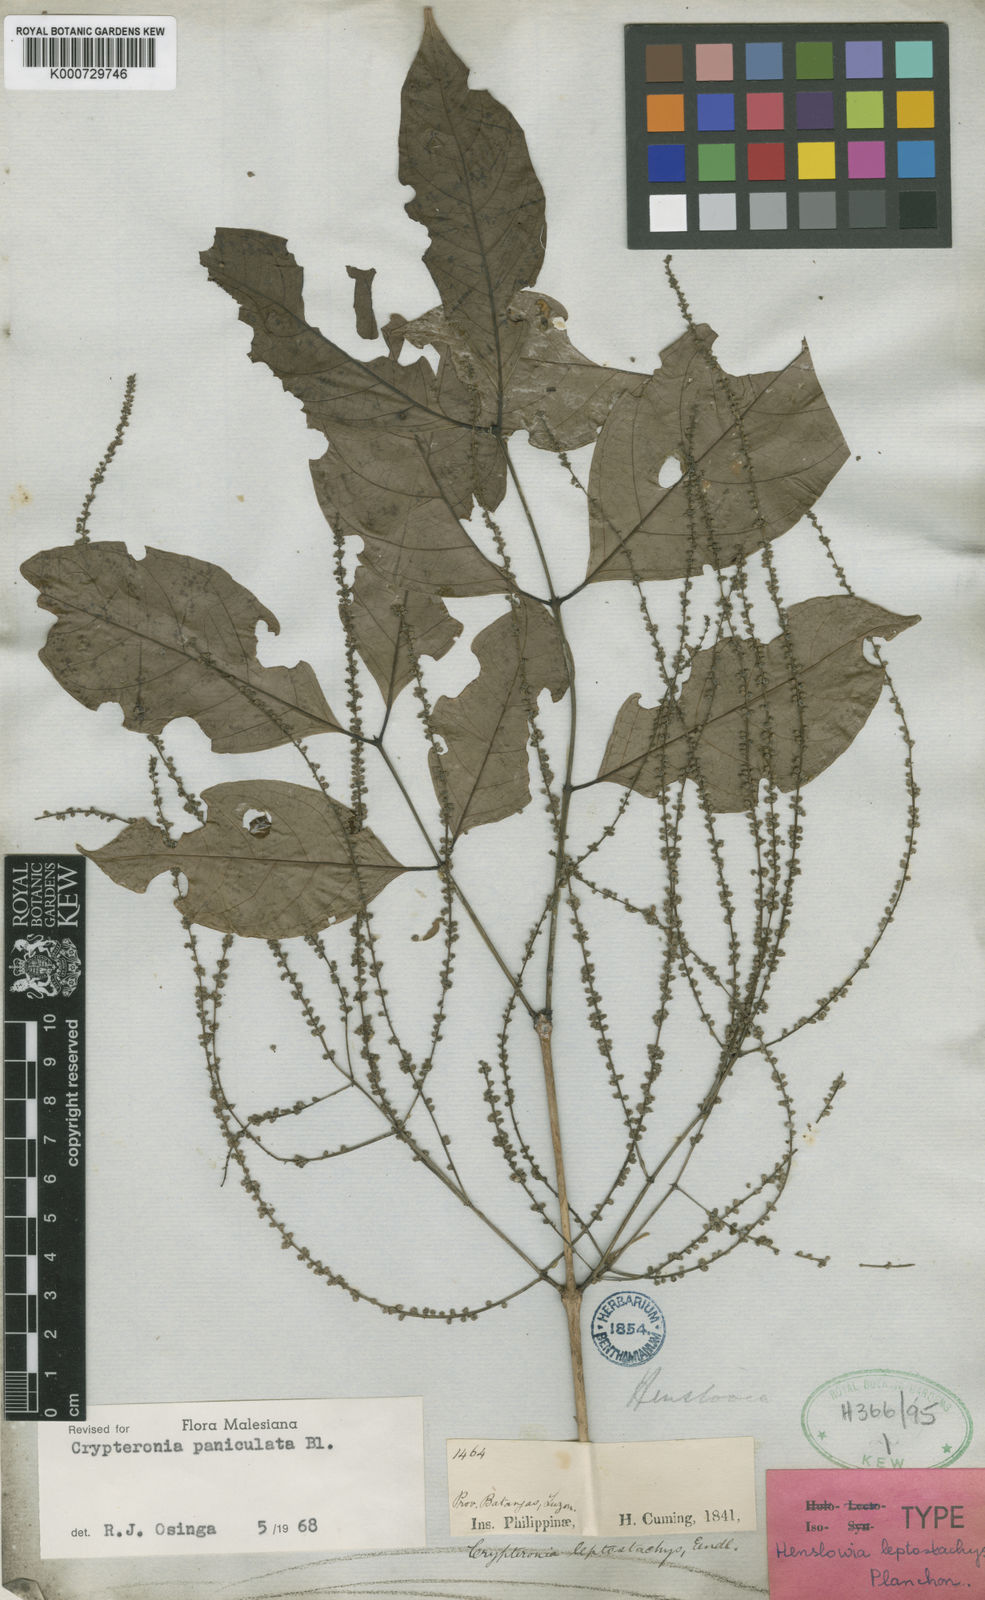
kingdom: Plantae
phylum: Tracheophyta
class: Magnoliopsida
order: Myrtales
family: Crypteroniaceae
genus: Crypteronia
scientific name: Crypteronia paniculata
